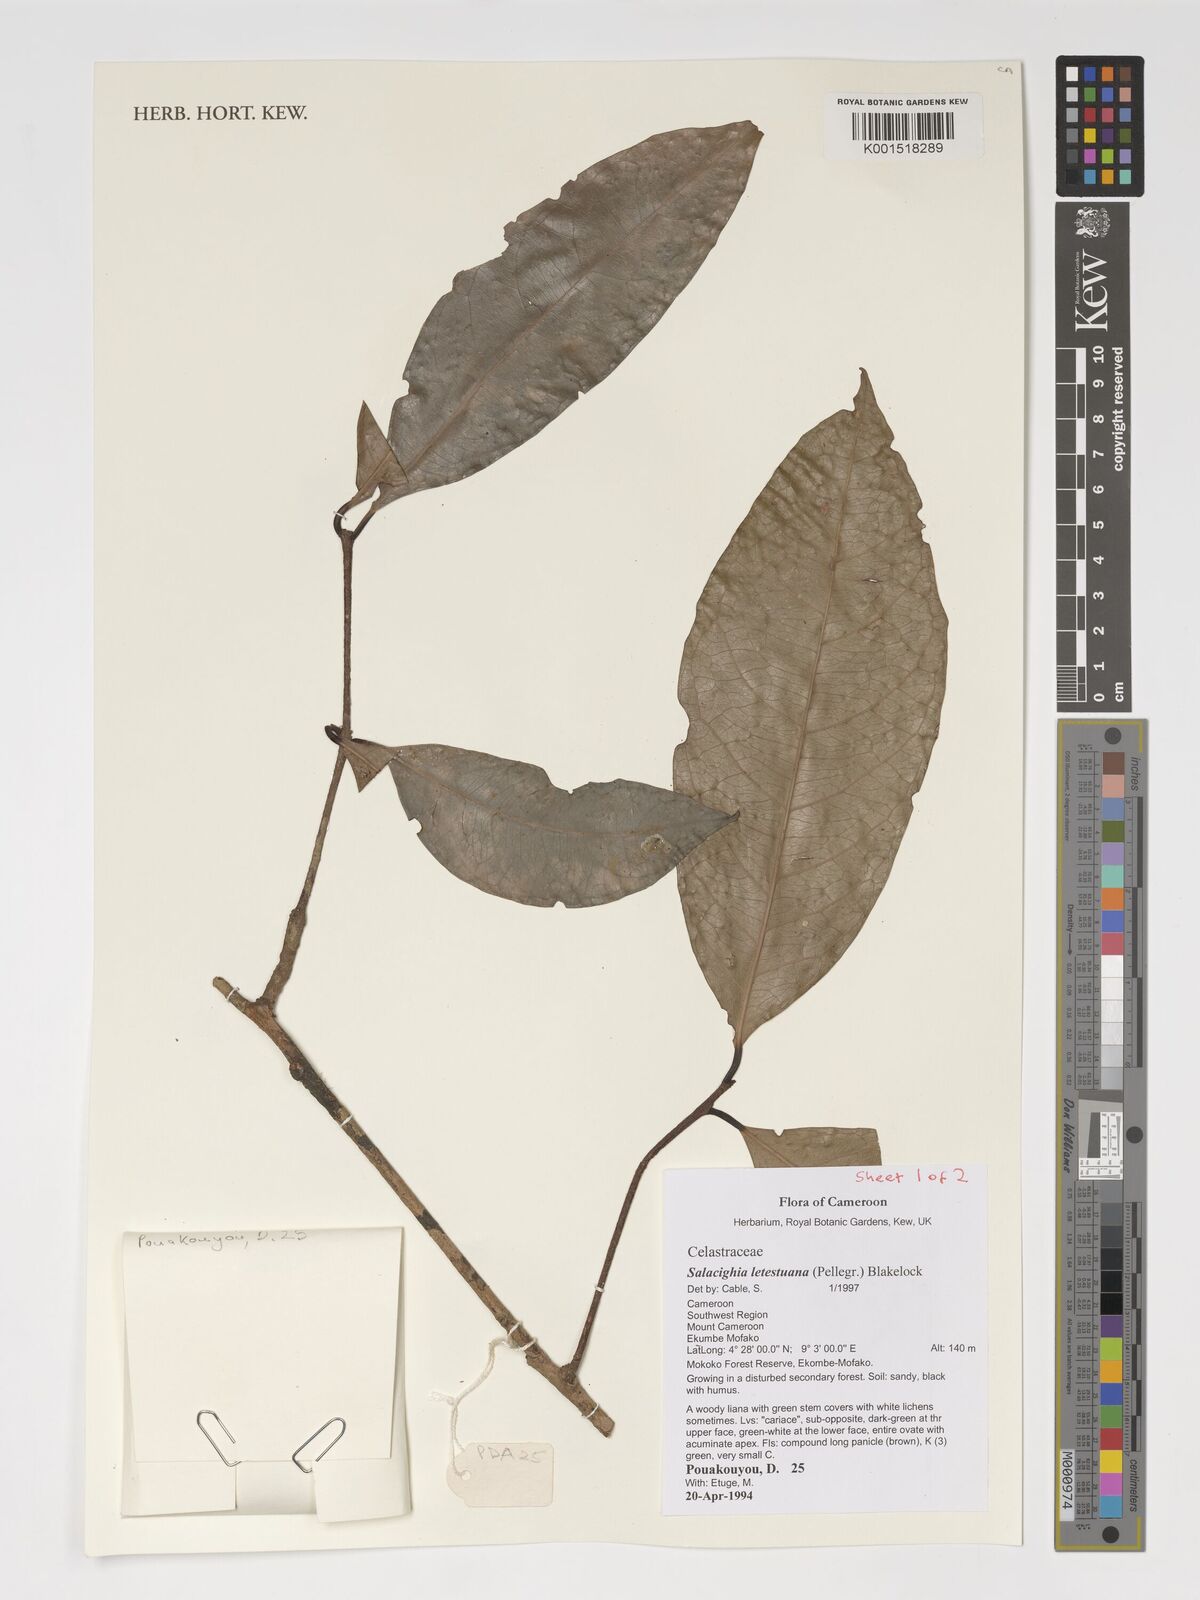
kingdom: Plantae
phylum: Tracheophyta
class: Magnoliopsida
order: Celastrales
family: Celastraceae
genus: Salacighia
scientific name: Salacighia letestuana
